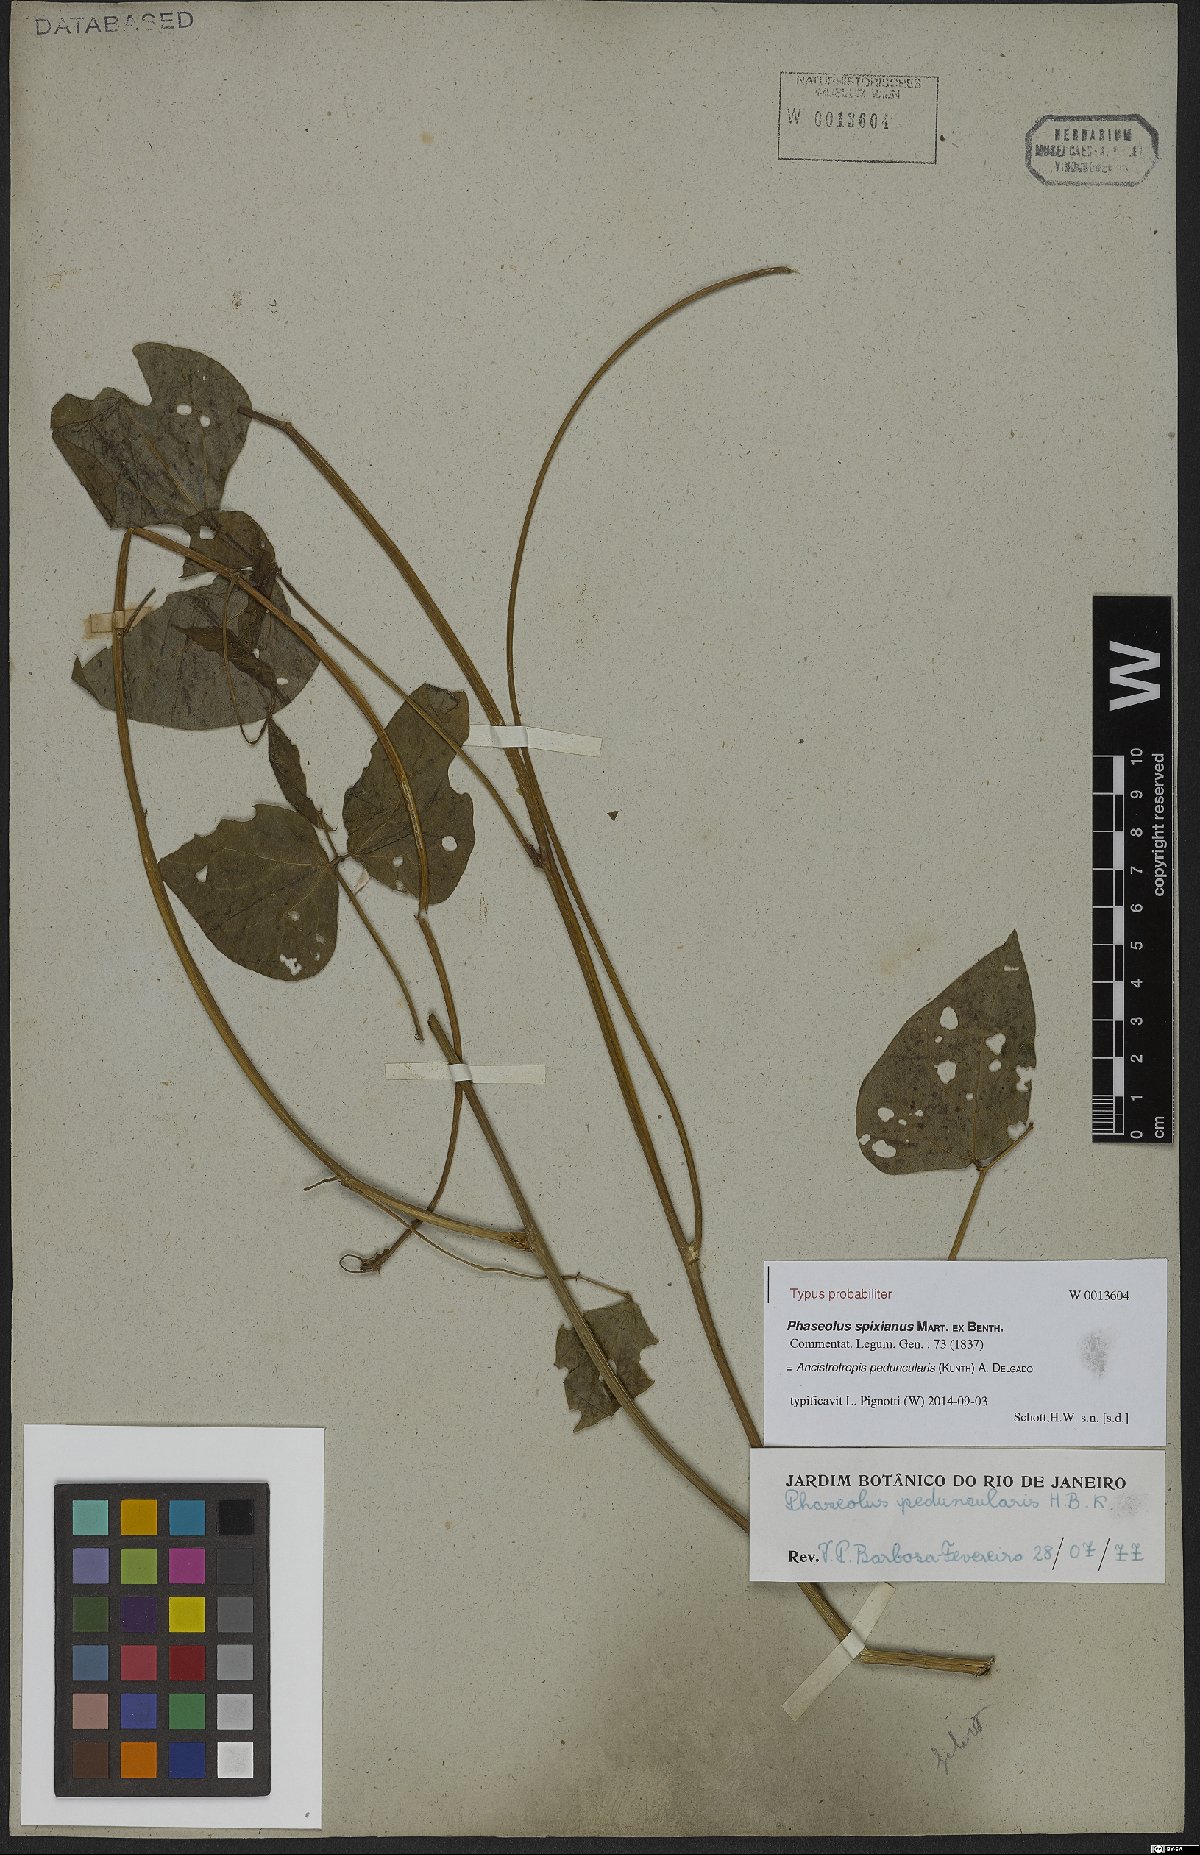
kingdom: Plantae
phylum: Tracheophyta
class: Magnoliopsida
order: Fabales
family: Fabaceae
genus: Ancistrotropis
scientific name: Ancistrotropis peduncularis
